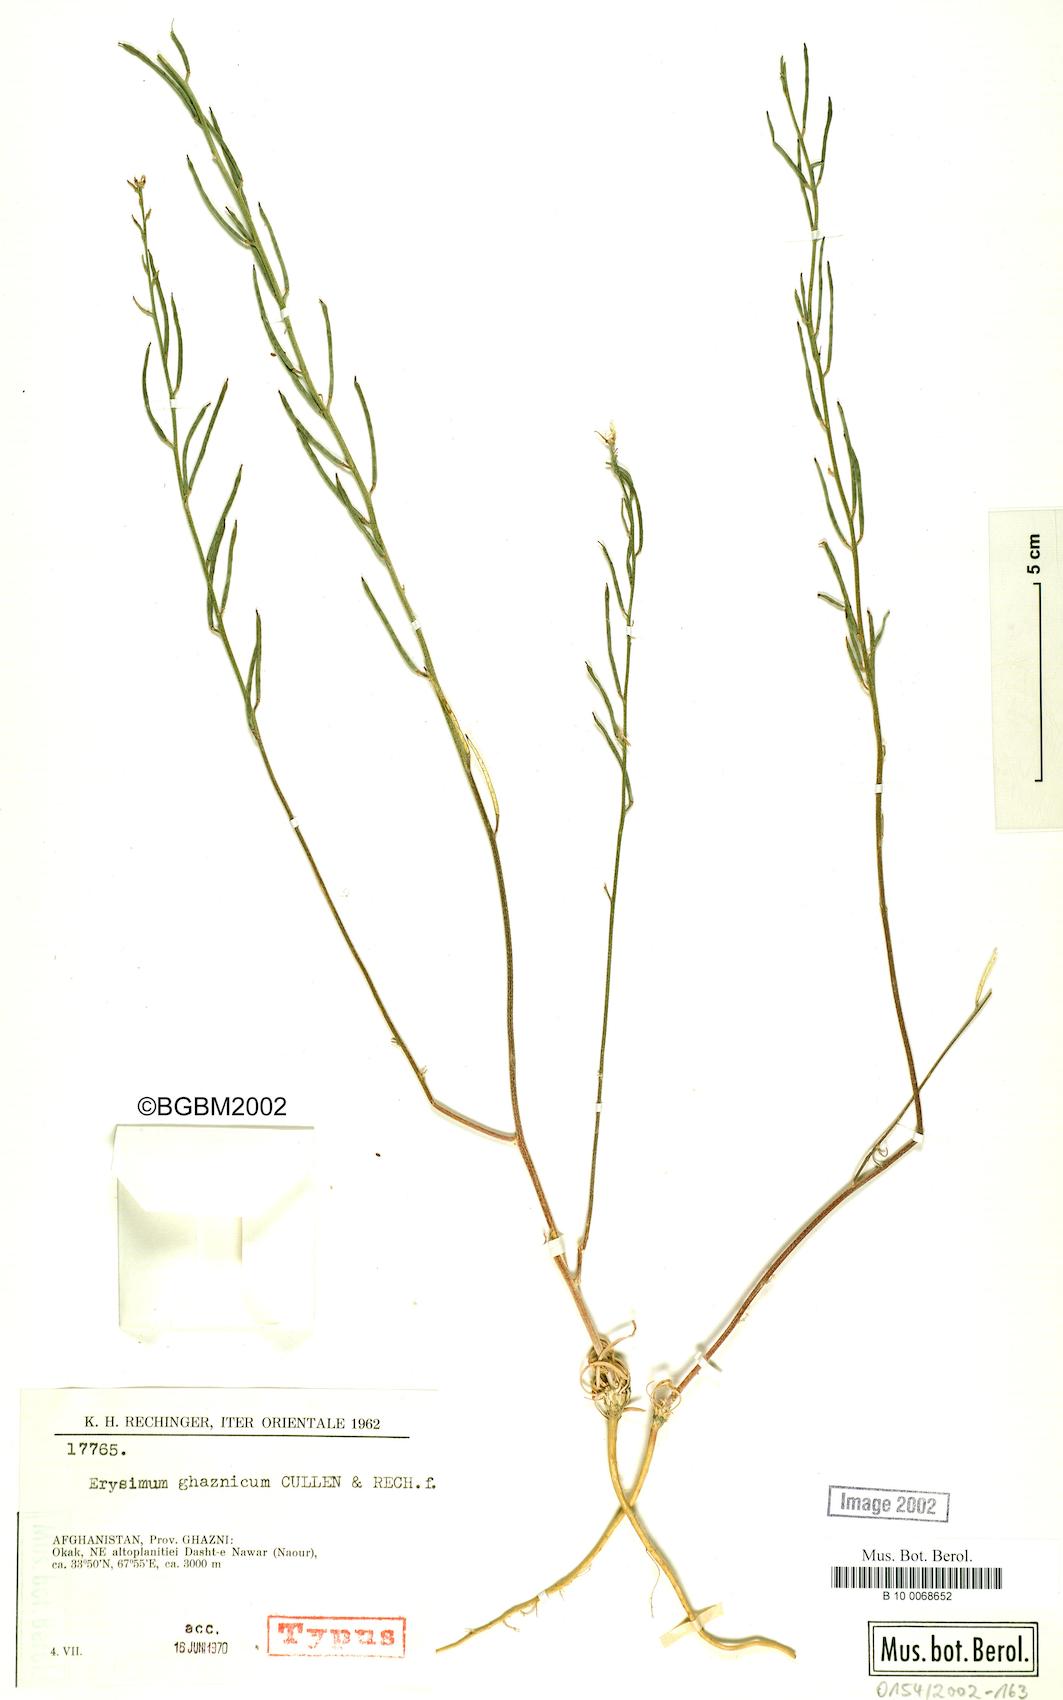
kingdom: Plantae
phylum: Tracheophyta
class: Magnoliopsida
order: Brassicales
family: Brassicaceae
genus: Erysimum
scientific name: Erysimum ghaznicum
